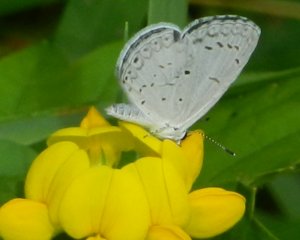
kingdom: Animalia
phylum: Arthropoda
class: Insecta
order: Lepidoptera
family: Lycaenidae
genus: Cyaniris
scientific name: Cyaniris neglecta
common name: Summer Azure
